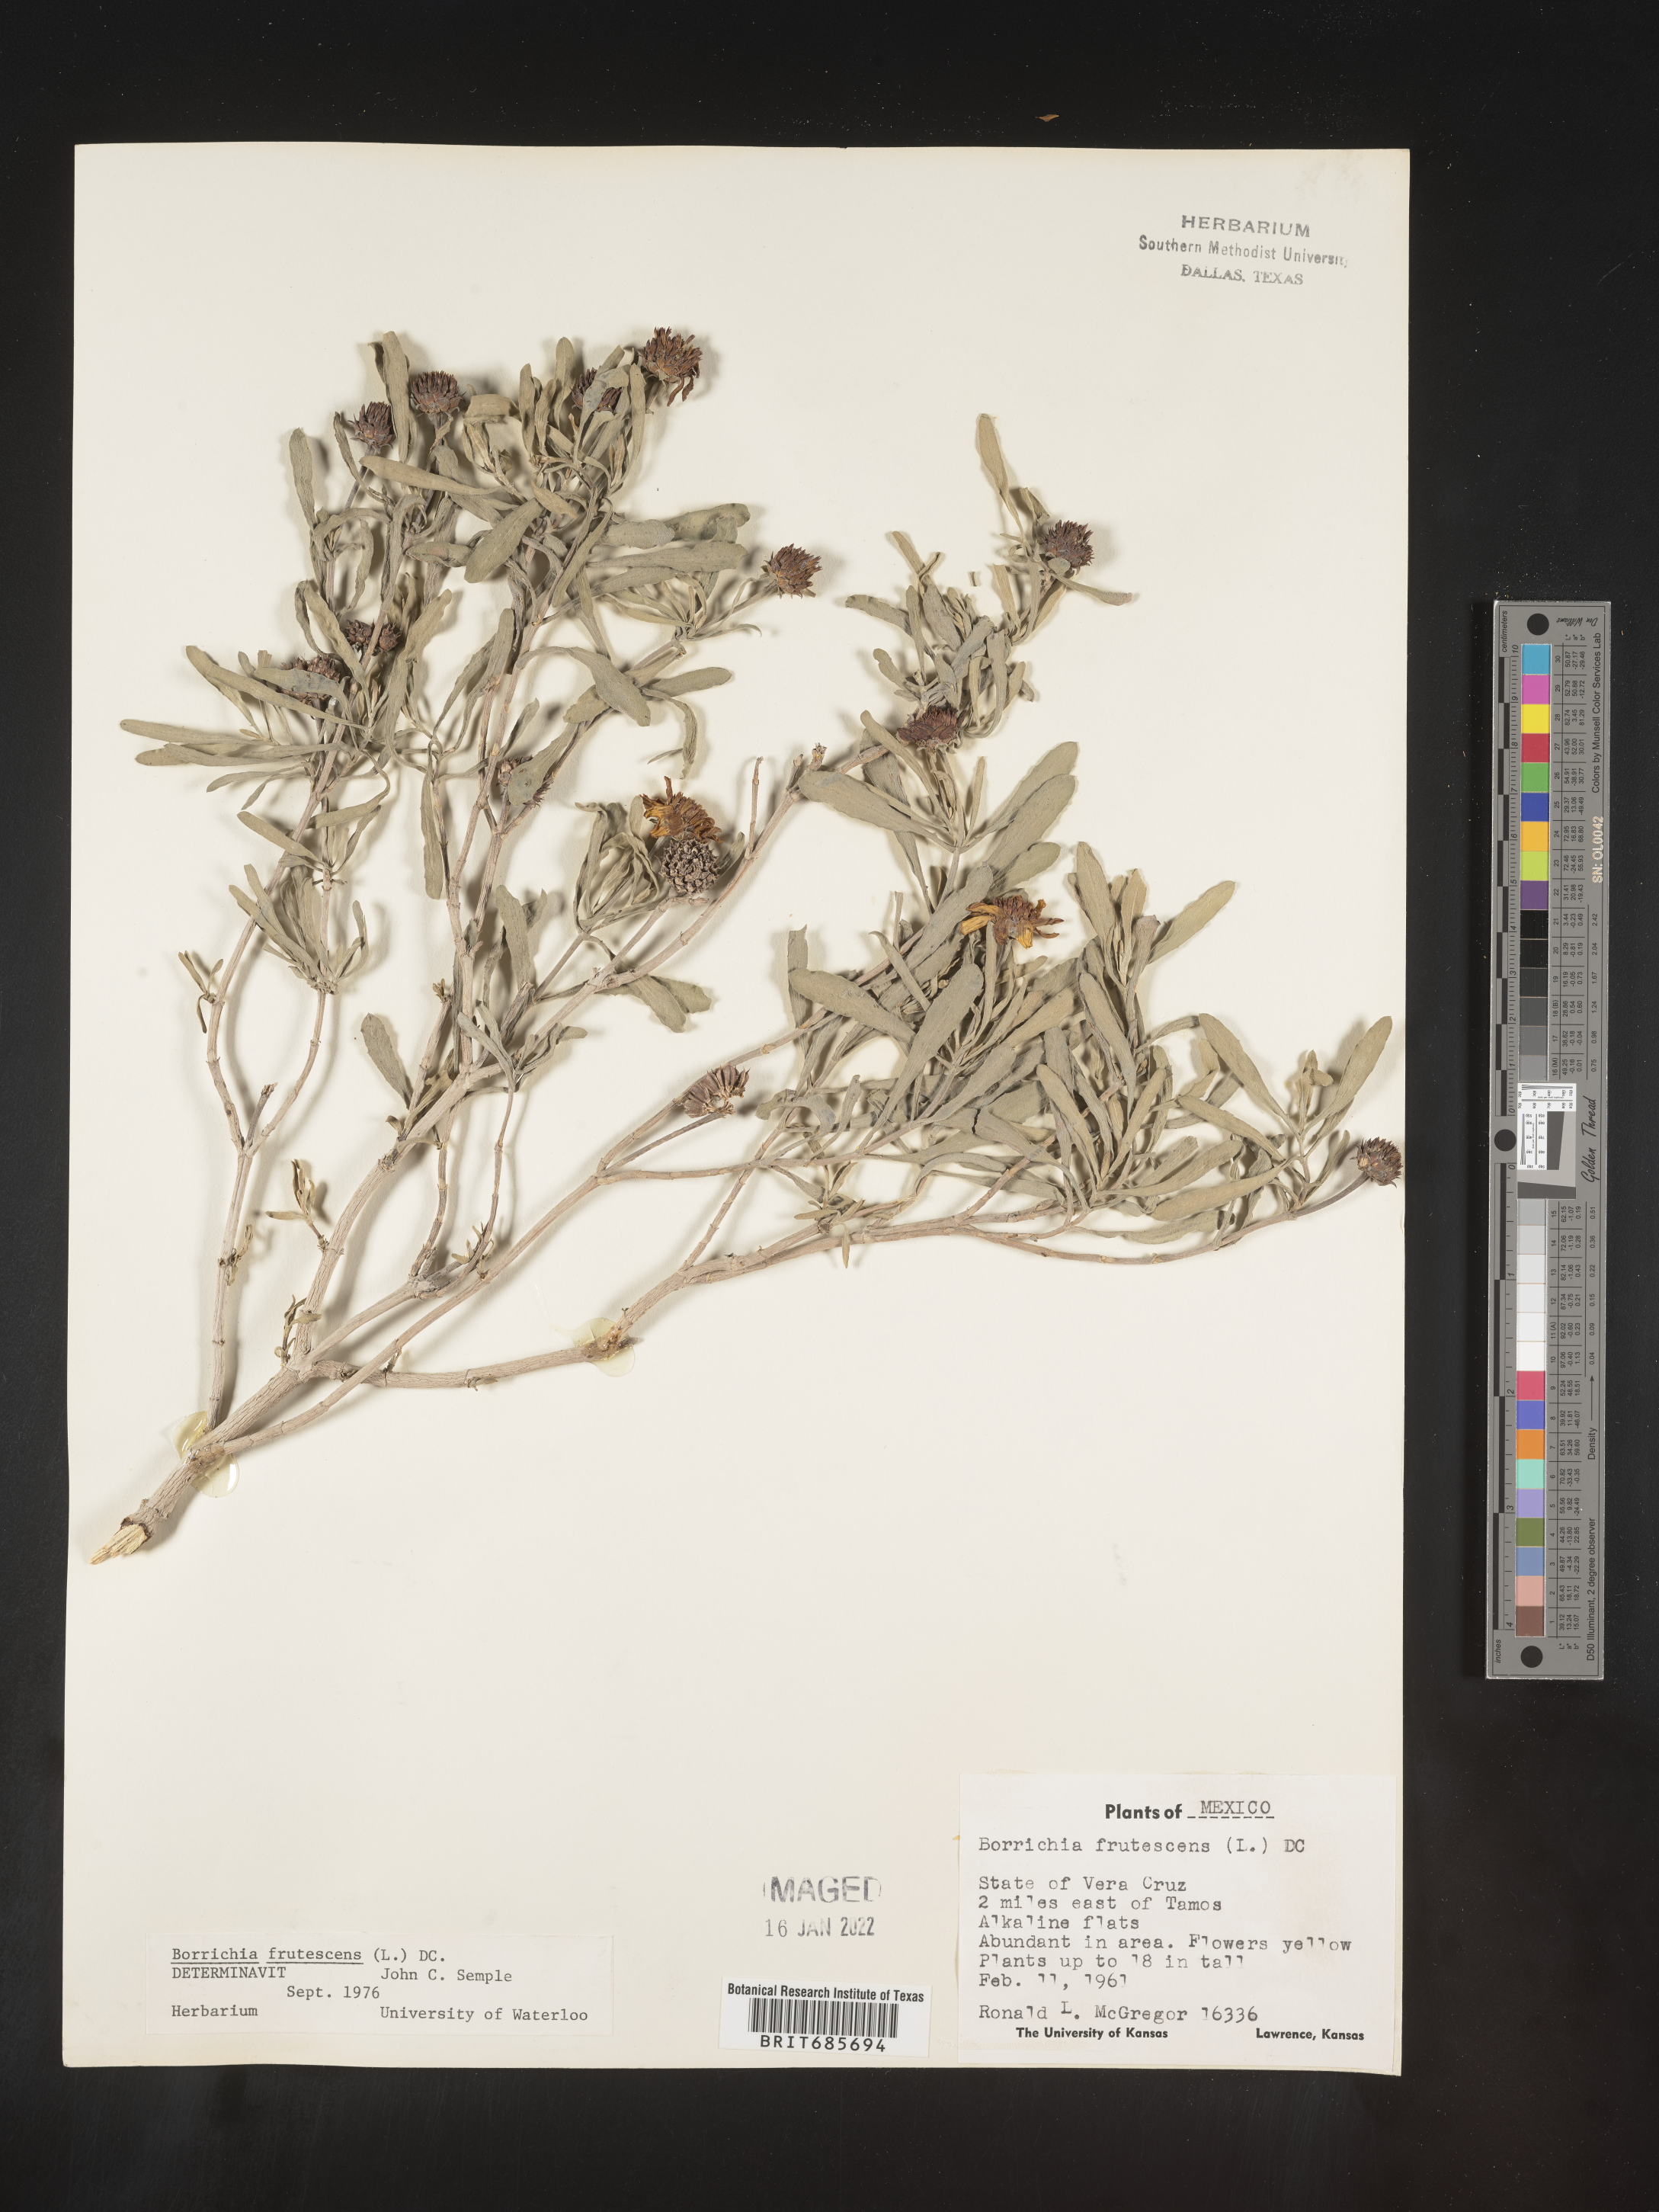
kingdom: Plantae
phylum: Tracheophyta
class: Magnoliopsida
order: Asterales
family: Asteraceae
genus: Borrichia
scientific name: Borrichia
